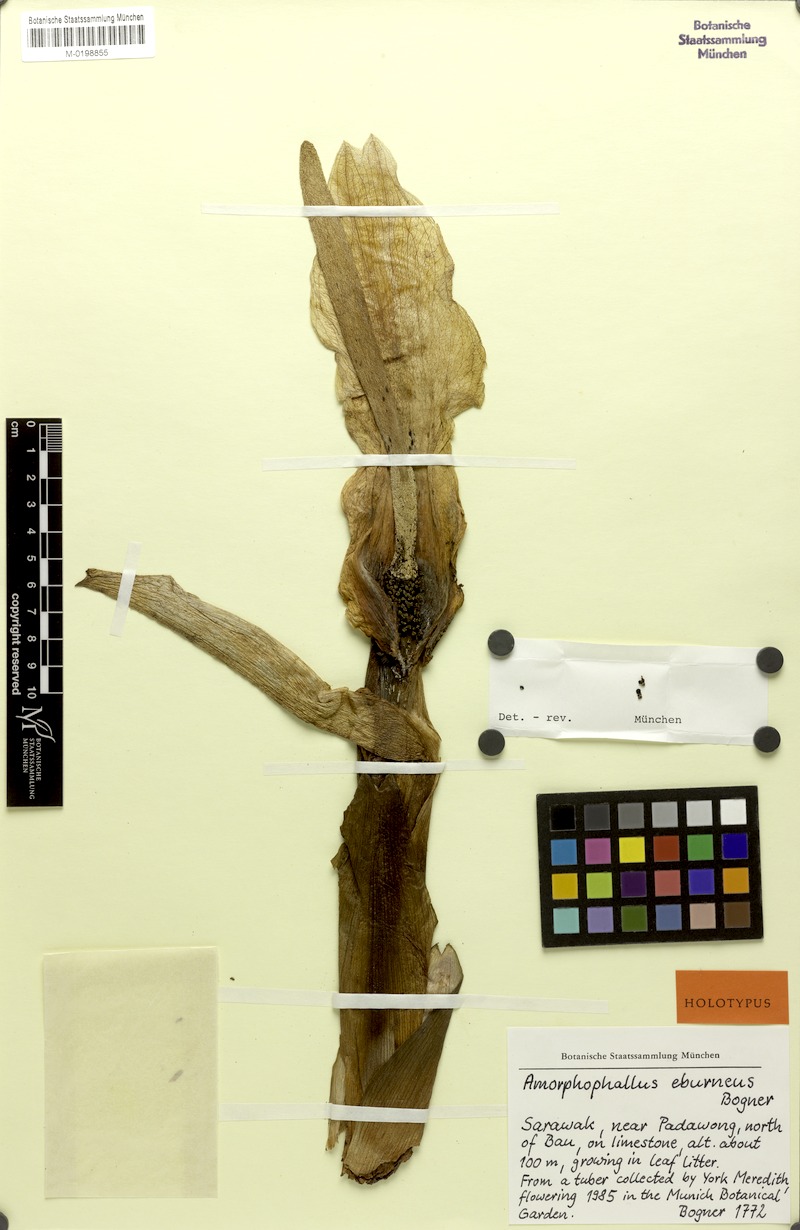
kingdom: Plantae
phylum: Tracheophyta
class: Liliopsida
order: Alismatales
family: Araceae
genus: Amorphophallus
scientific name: Amorphophallus eburneus
